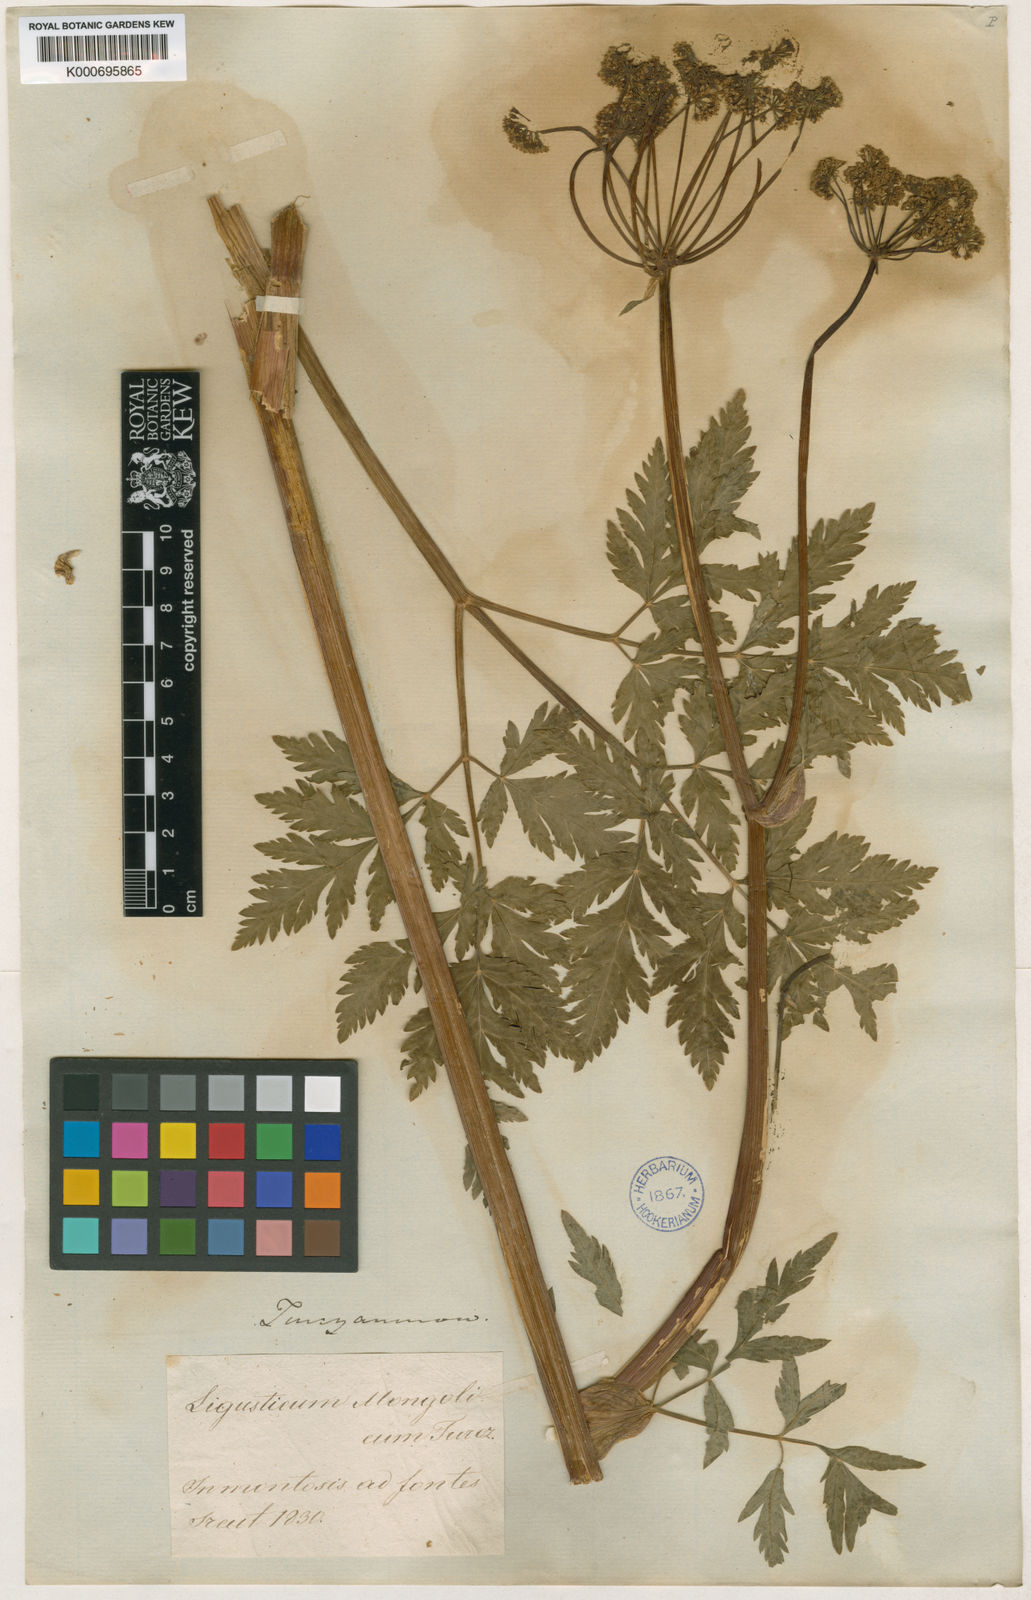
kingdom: Plantae
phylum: Tracheophyta
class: Magnoliopsida
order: Apiales
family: Apiaceae
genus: Hansenia
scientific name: Hansenia mongholica
